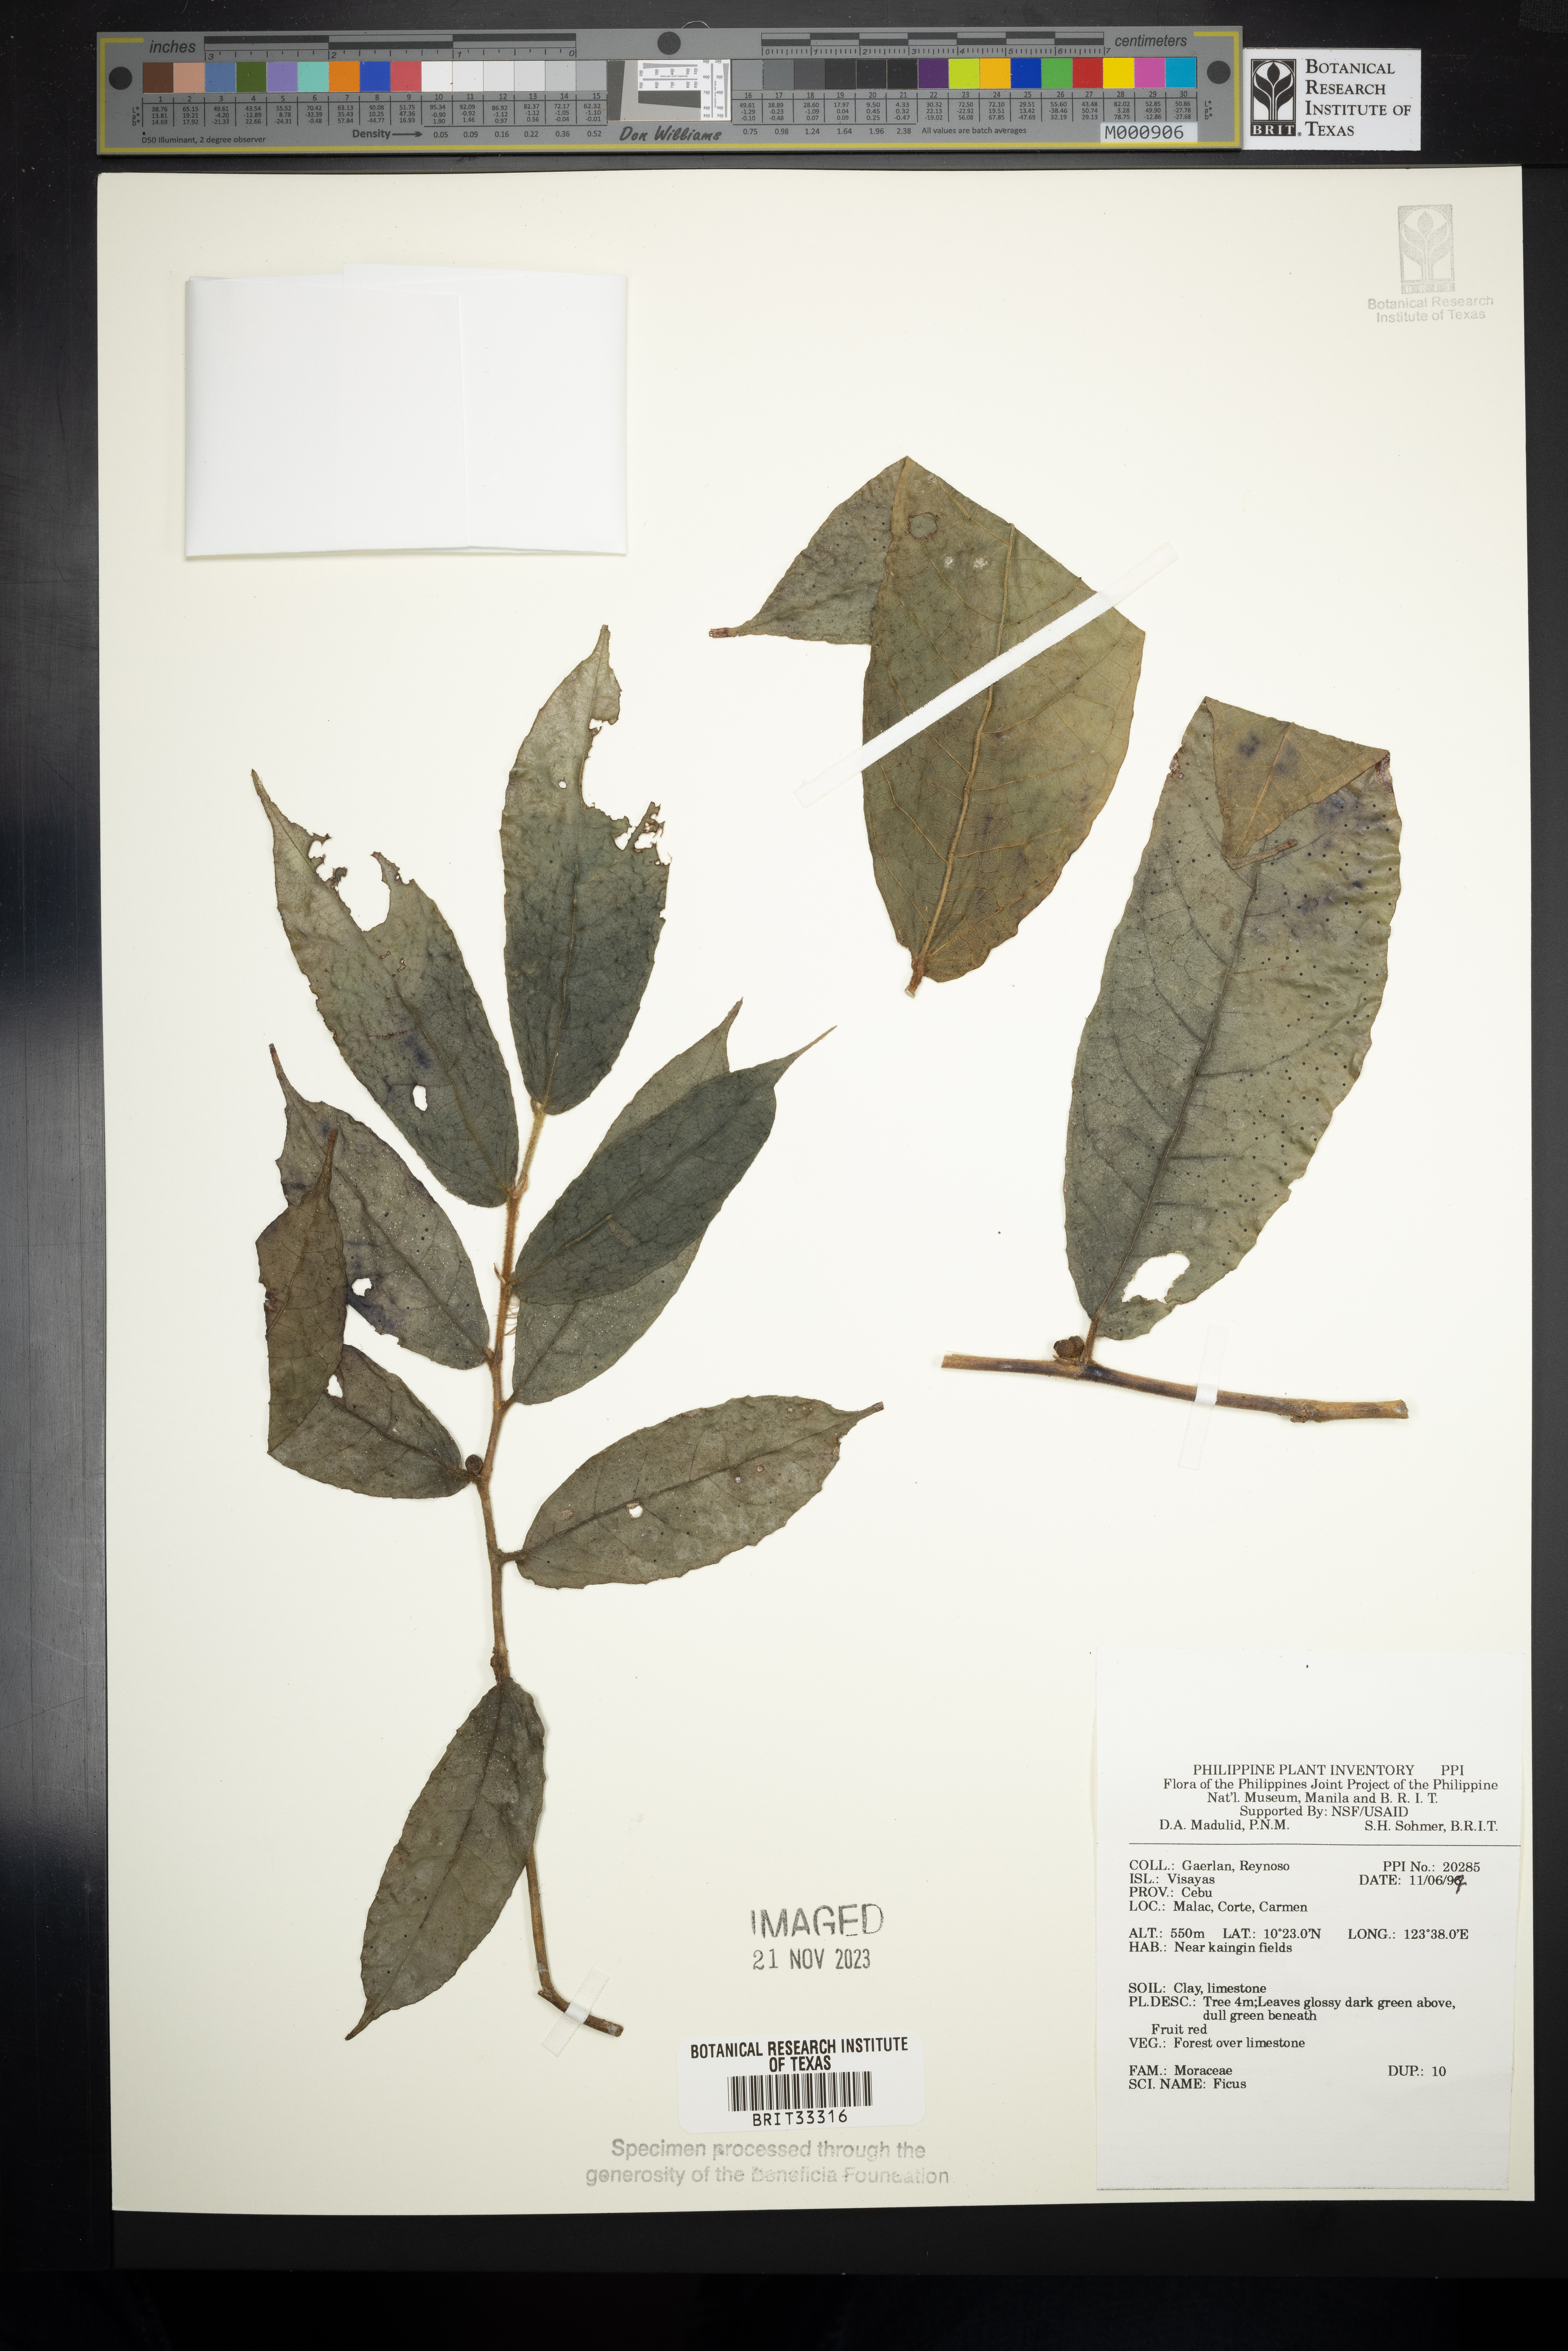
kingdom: Plantae
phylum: Tracheophyta
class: Magnoliopsida
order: Rosales
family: Moraceae
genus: Ficus
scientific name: Ficus
